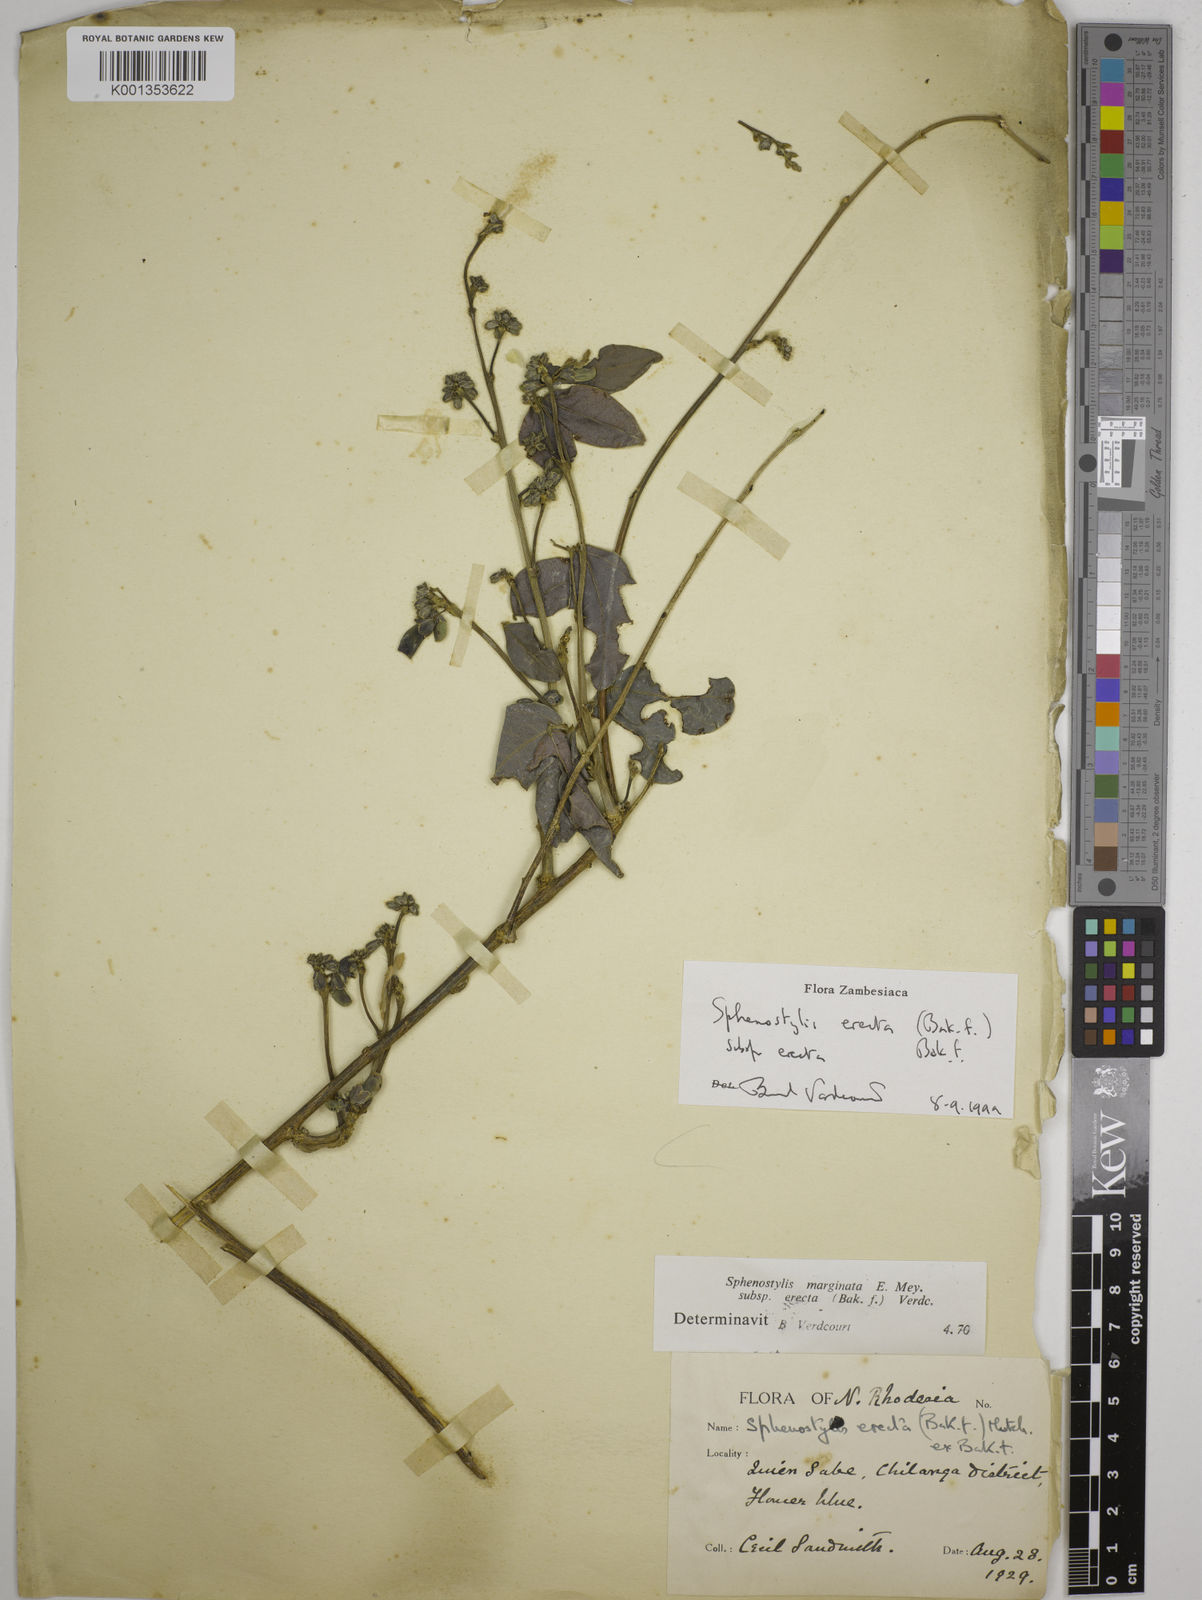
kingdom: Plantae
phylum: Tracheophyta
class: Magnoliopsida
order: Fabales
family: Fabaceae
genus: Sphenostylis
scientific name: Sphenostylis erecta
